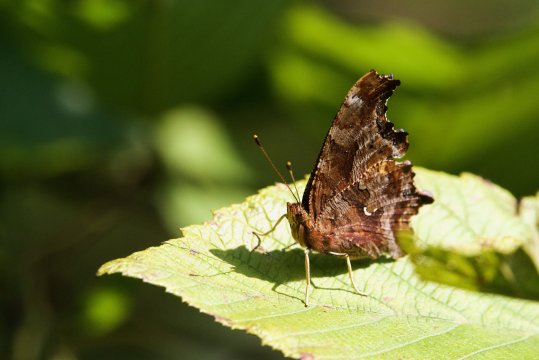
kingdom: Animalia
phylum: Arthropoda
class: Insecta
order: Lepidoptera
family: Nymphalidae
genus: Polygonia
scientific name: Polygonia comma
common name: Eastern Comma
